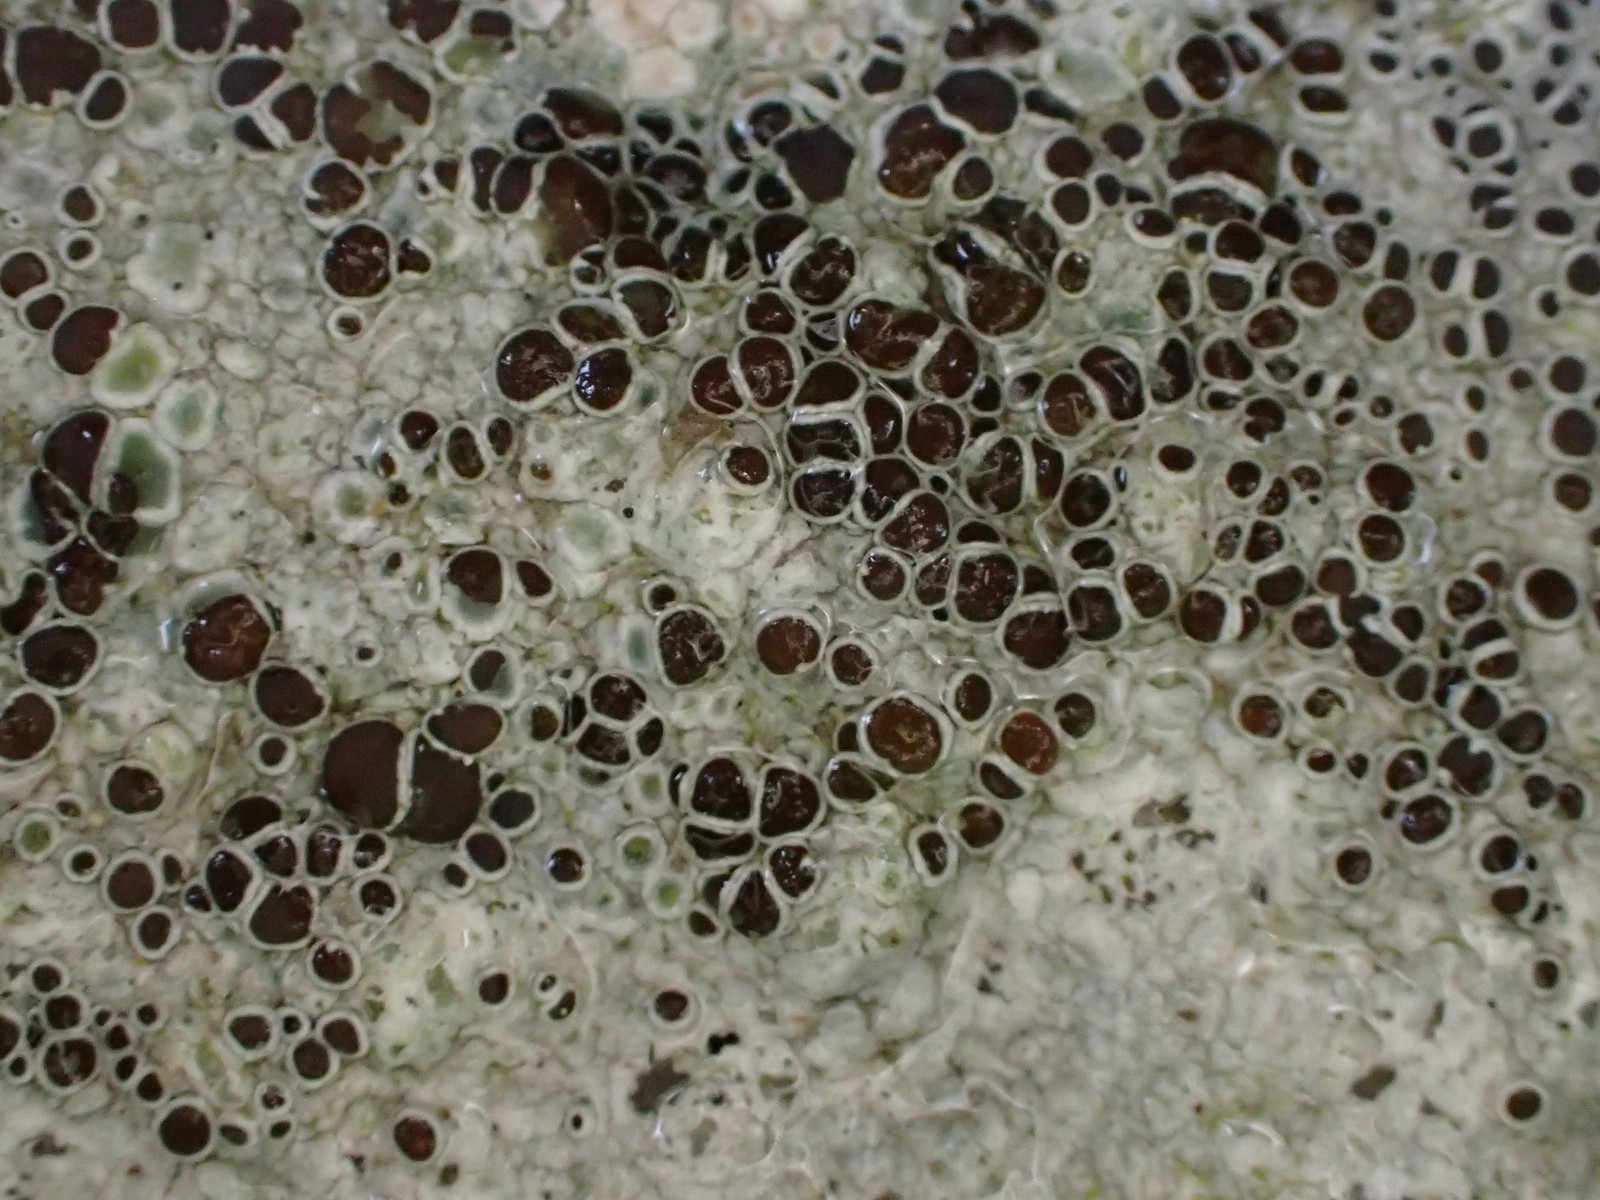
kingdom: Fungi
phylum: Ascomycota
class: Lecanoromycetes
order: Lecanorales
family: Lecanoraceae
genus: Lecanora
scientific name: Lecanora campestris
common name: mur-kantskivelav
